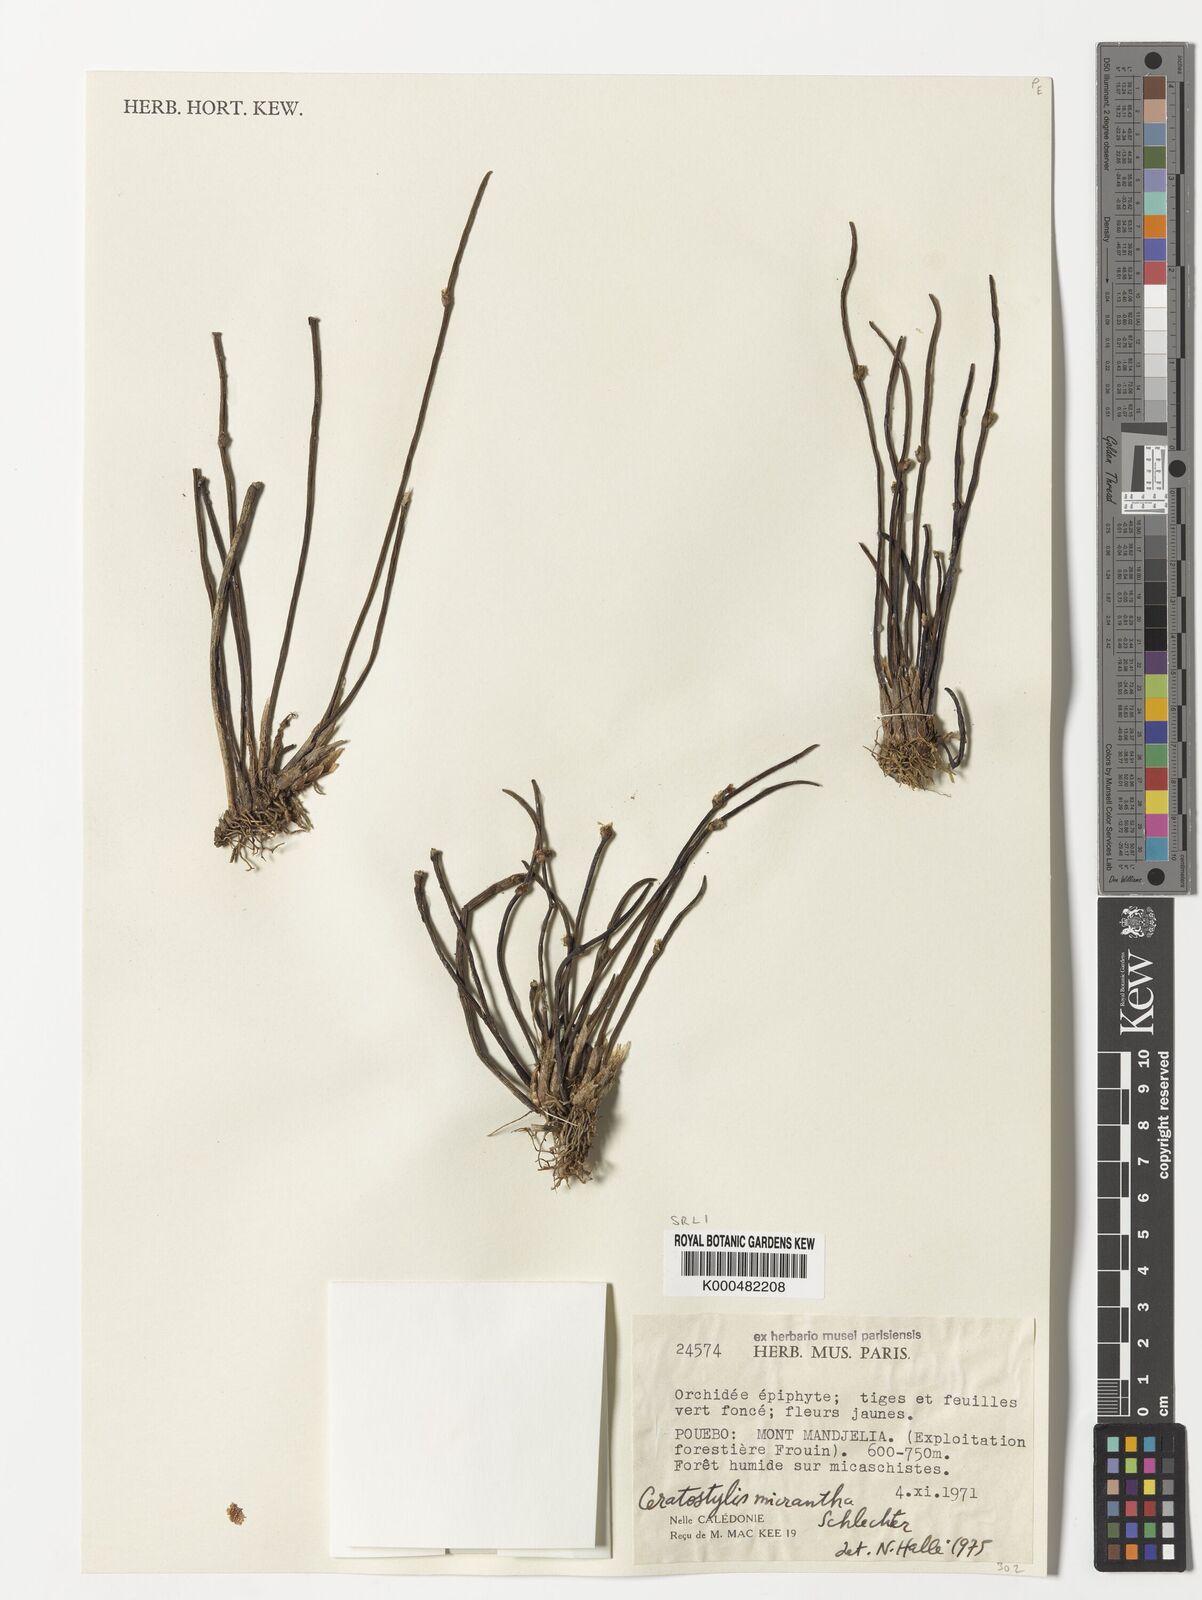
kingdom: Plantae
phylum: Tracheophyta
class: Liliopsida
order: Asparagales
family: Orchidaceae
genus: Ceratostylis
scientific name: Ceratostylis
